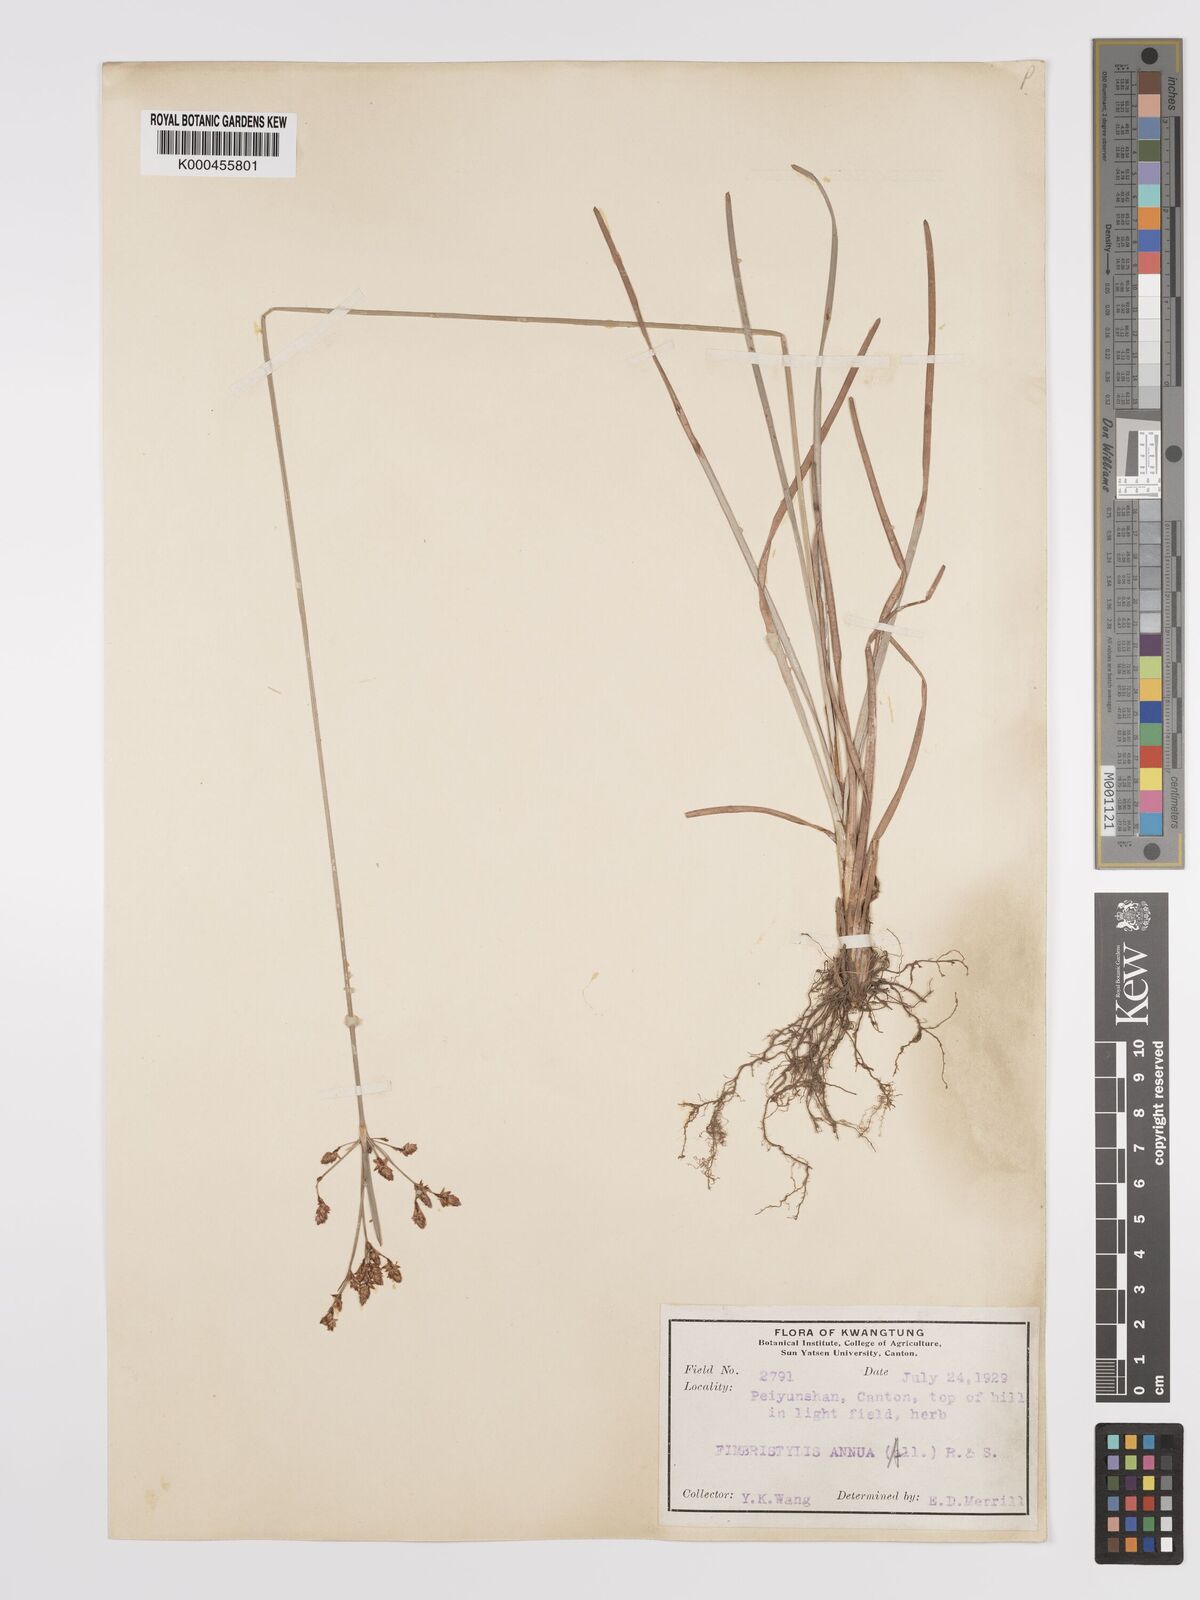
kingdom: Plantae
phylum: Tracheophyta
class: Liliopsida
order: Poales
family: Cyperaceae
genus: Fimbristylis
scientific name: Fimbristylis dichotoma
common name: Forked fimbry
